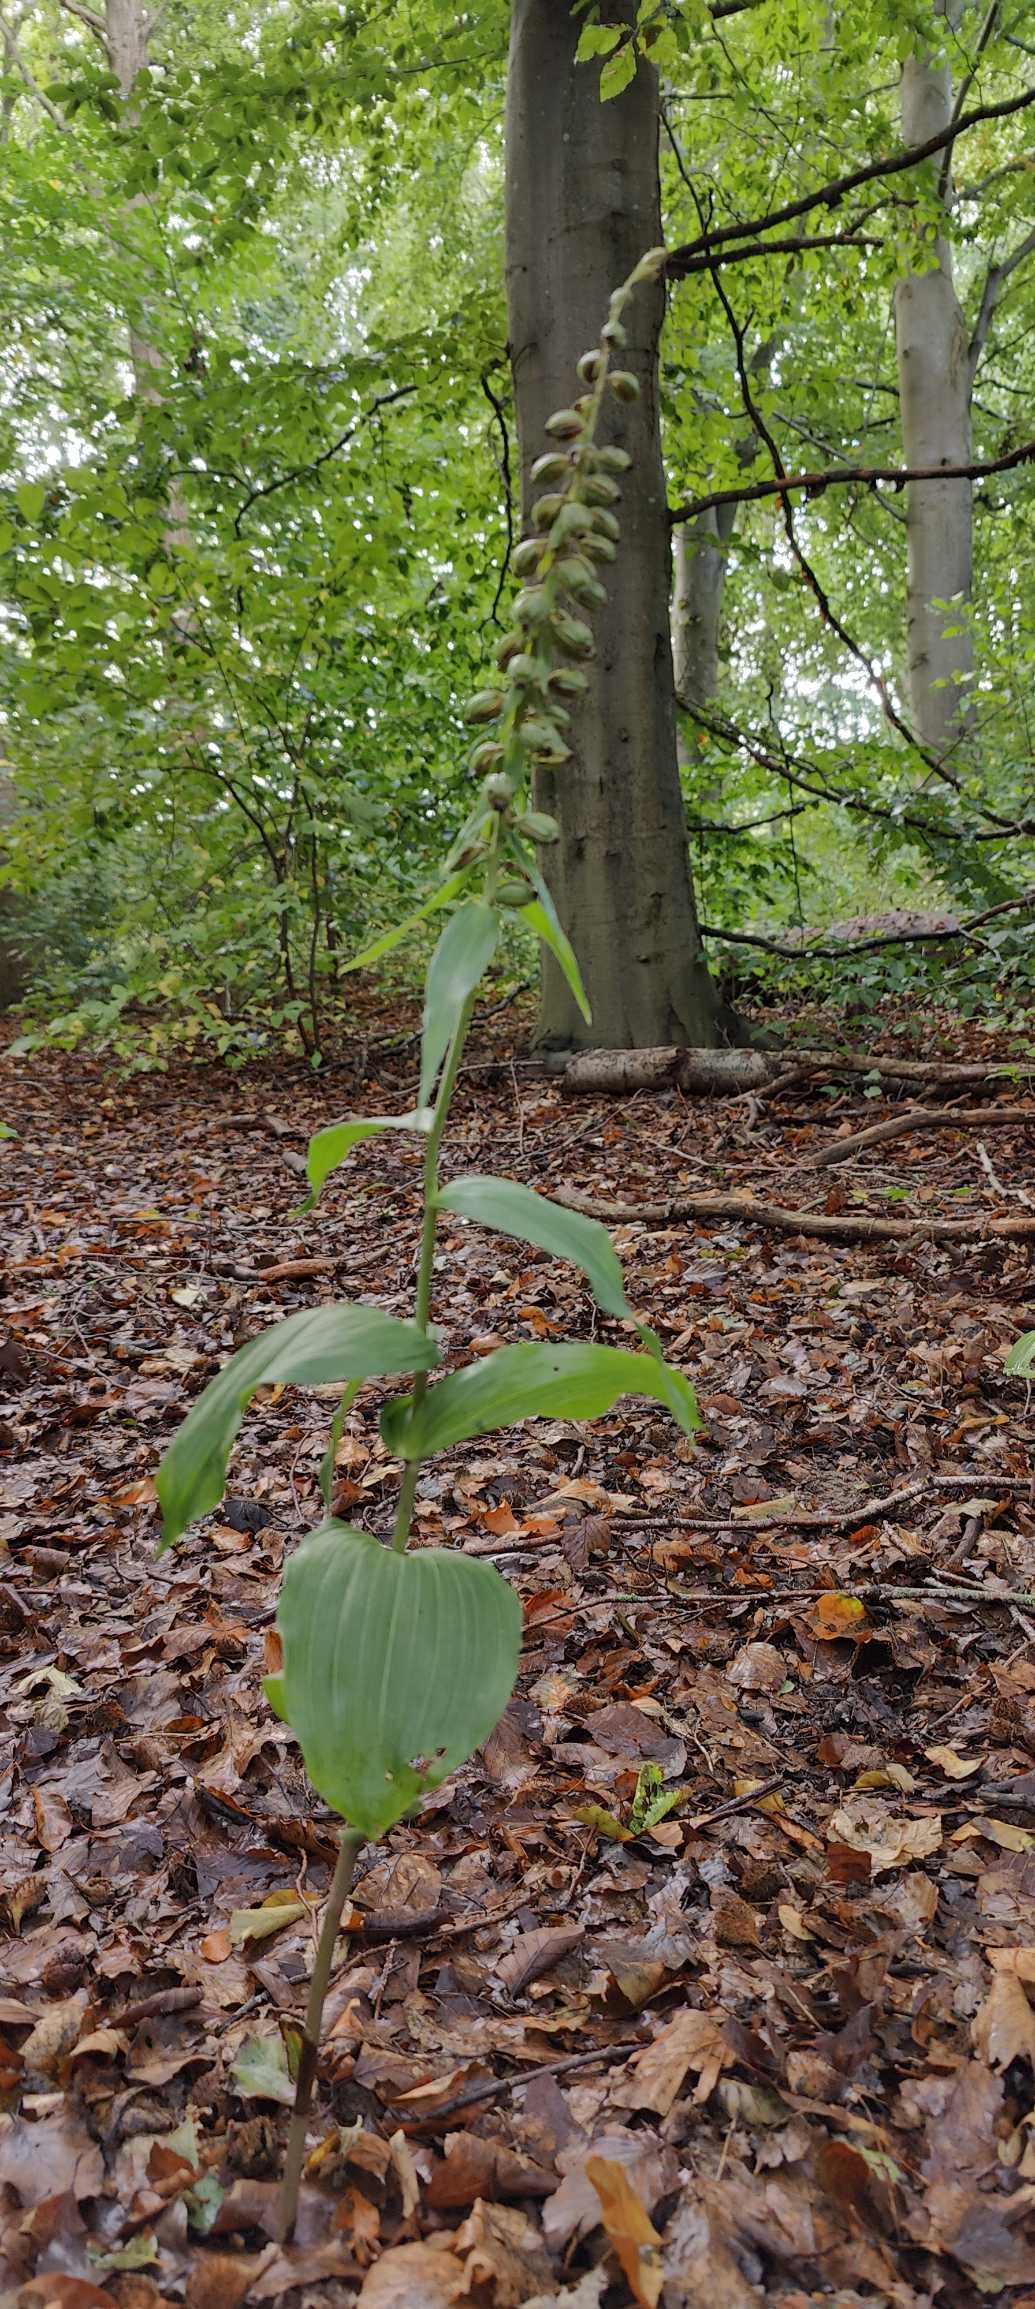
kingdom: Plantae
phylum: Tracheophyta
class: Liliopsida
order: Asparagales
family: Orchidaceae
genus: Epipactis
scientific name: Epipactis helleborine
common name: Skov-hullæbe
